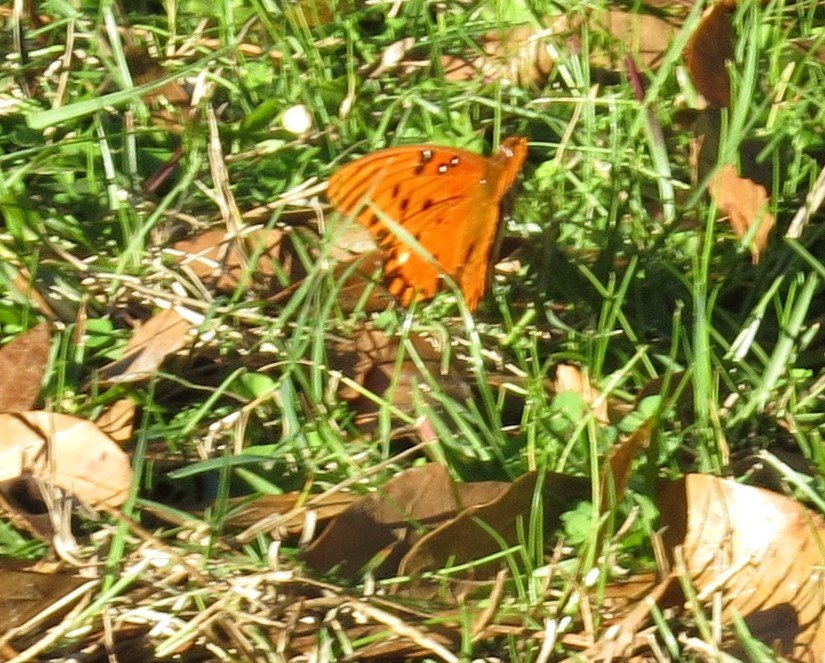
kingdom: Animalia
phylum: Arthropoda
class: Insecta
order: Lepidoptera
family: Nymphalidae
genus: Dione
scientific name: Dione vanillae
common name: Gulf Fritillary
